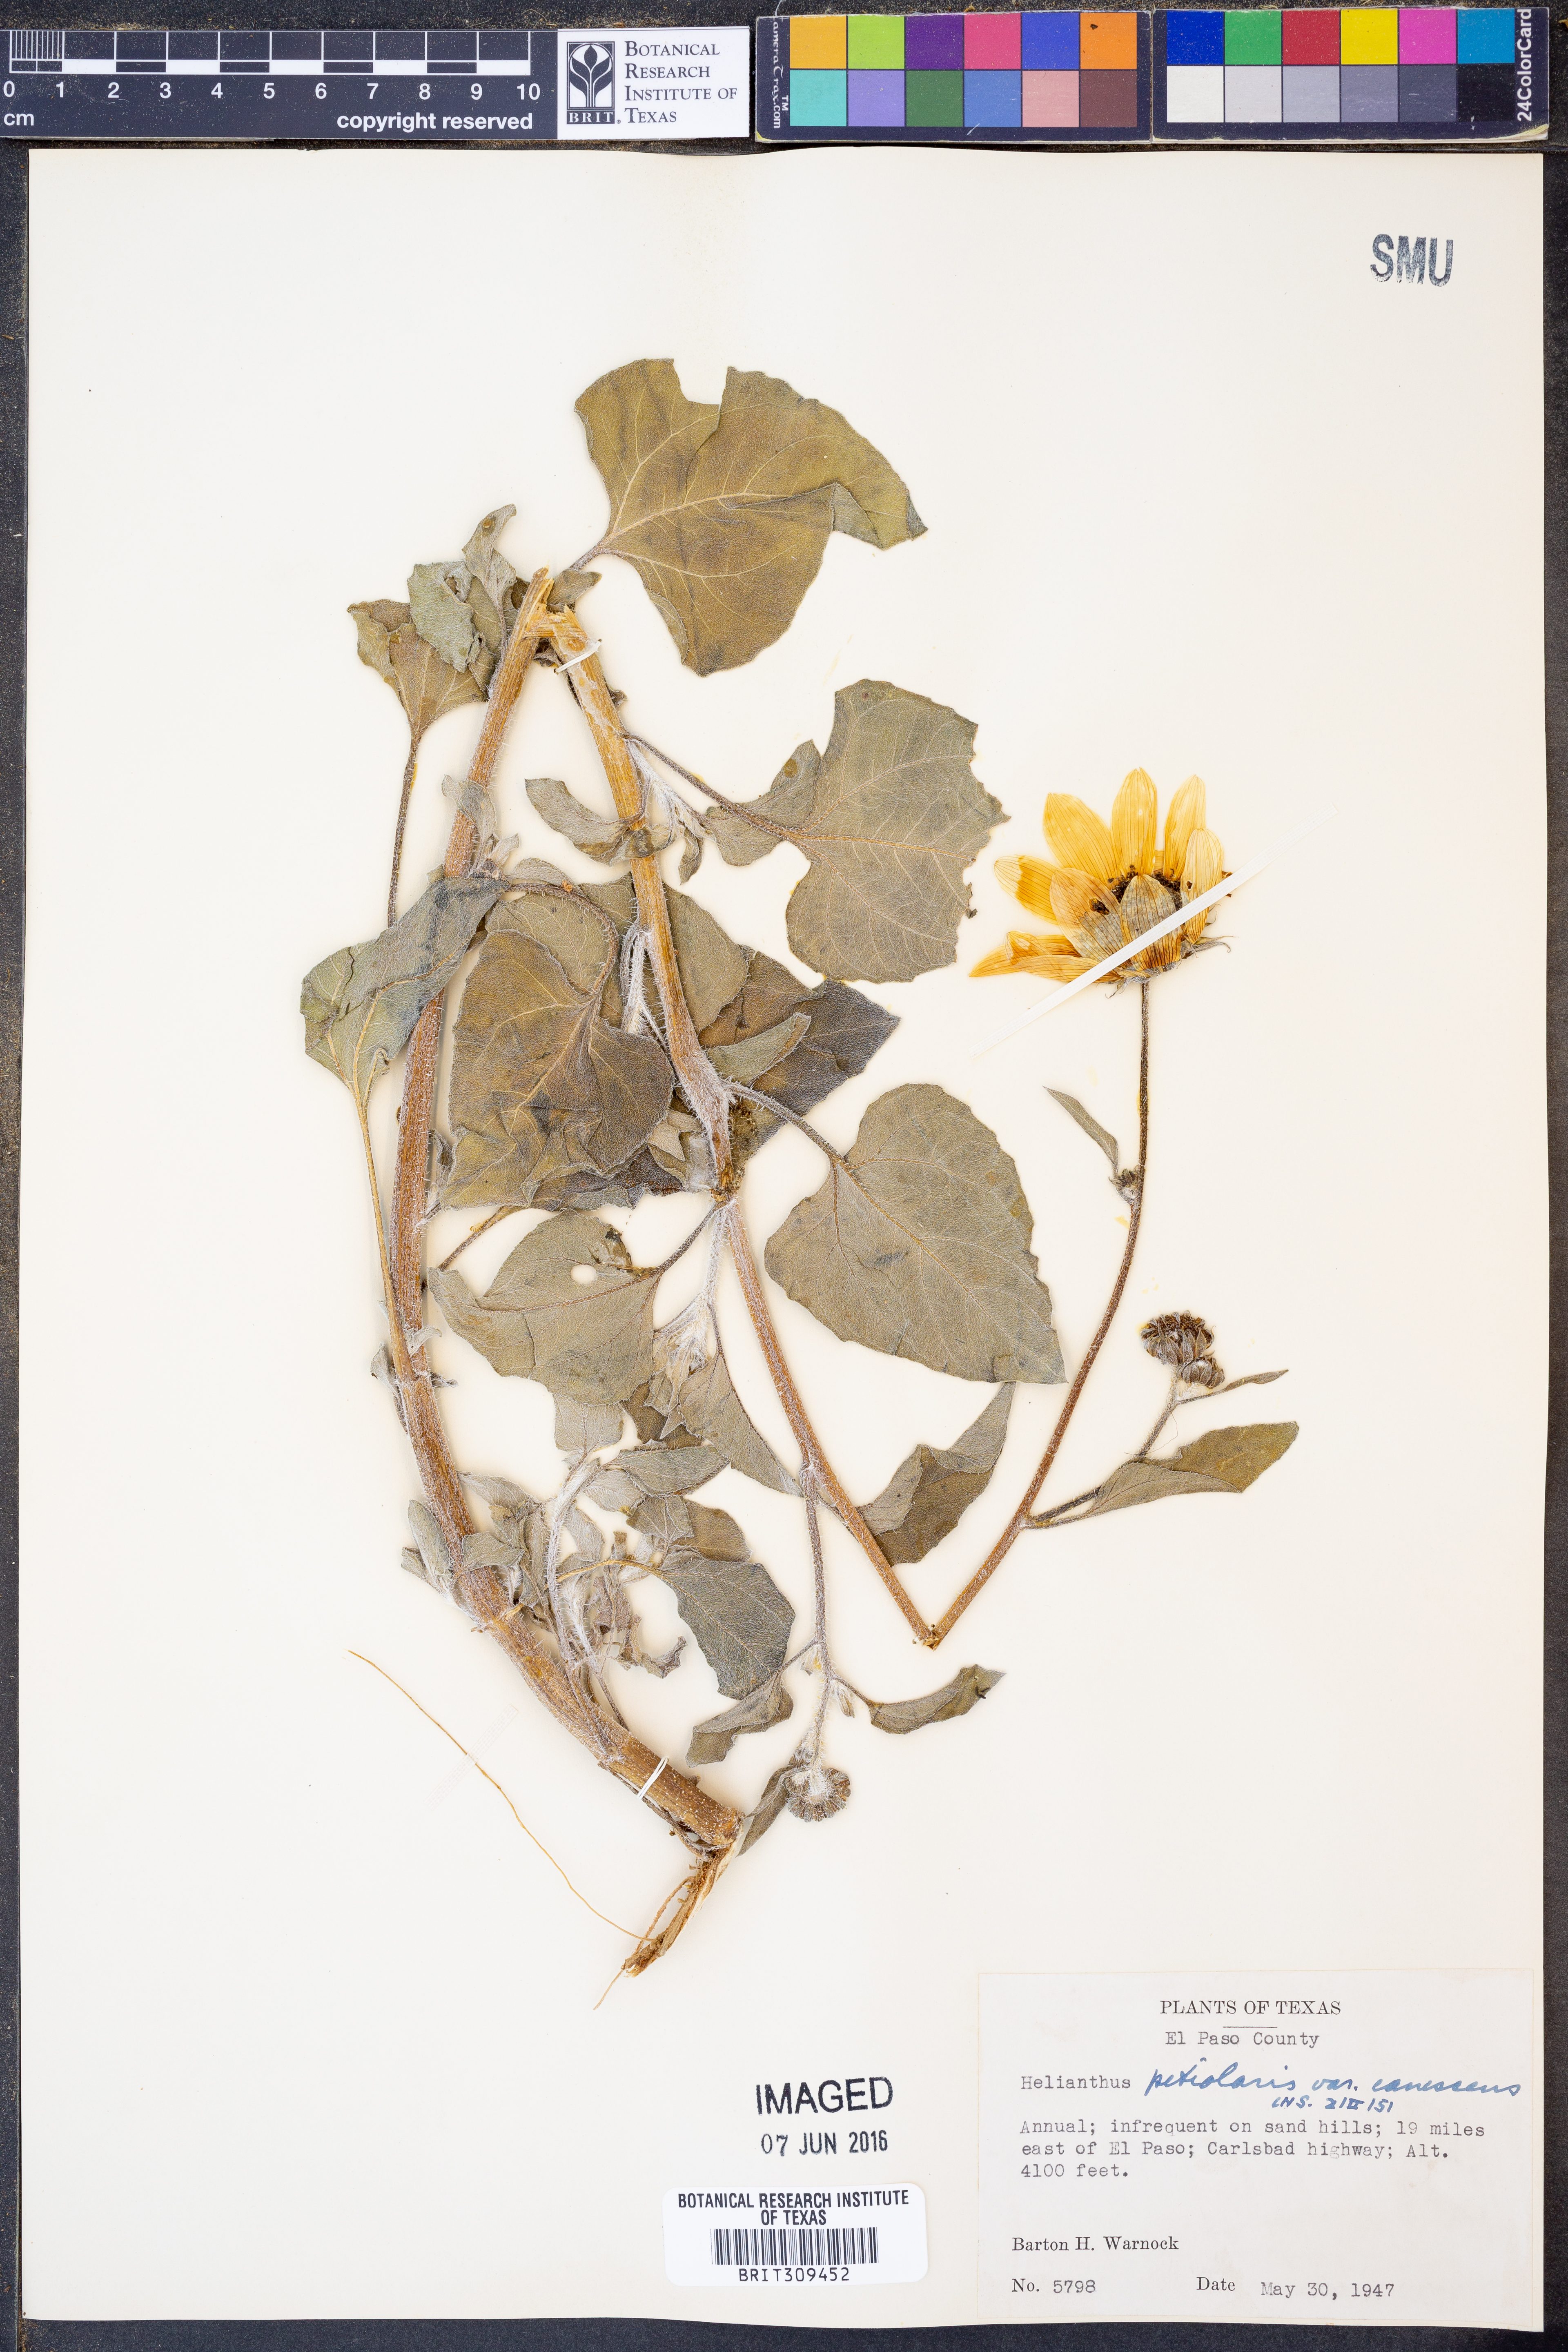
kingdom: Plantae
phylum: Tracheophyta
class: Magnoliopsida
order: Asterales
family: Asteraceae
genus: Helianthus
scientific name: Helianthus petiolaris
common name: Lesser sunflower
